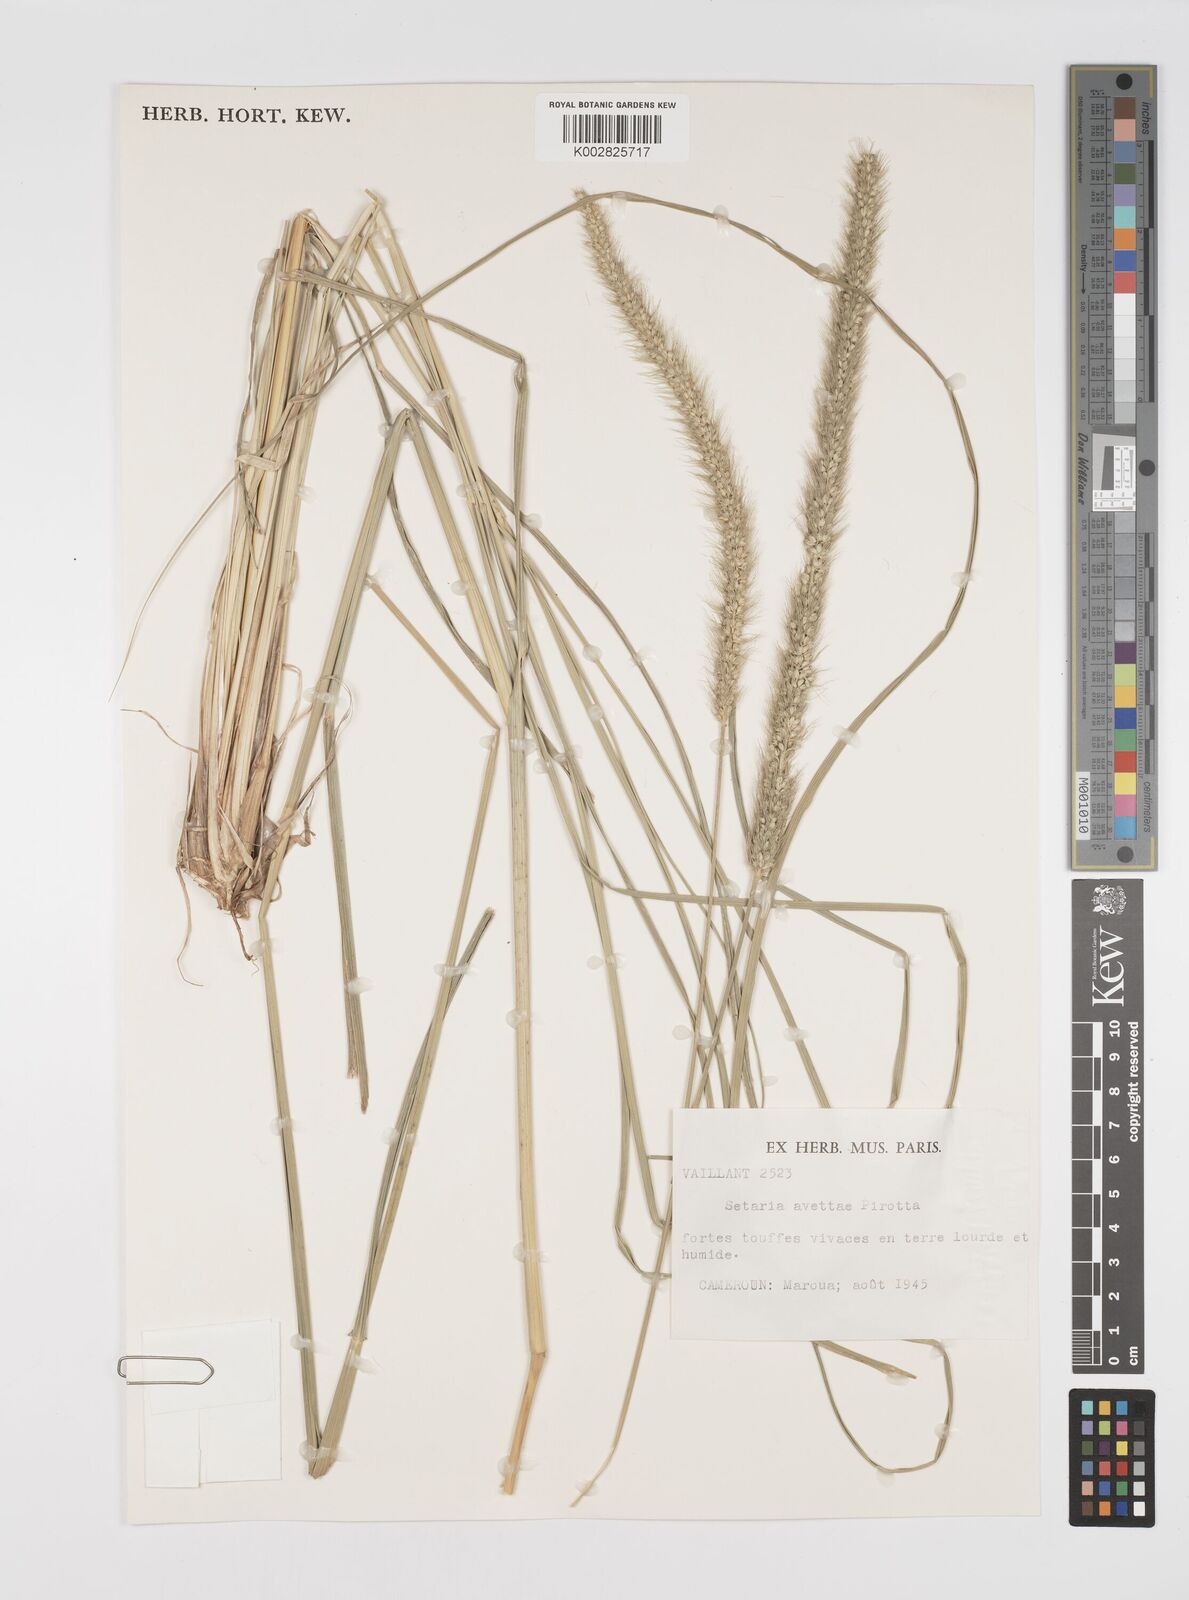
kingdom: Plantae
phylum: Tracheophyta
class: Liliopsida
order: Poales
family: Poaceae
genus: Setaria
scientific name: Setaria incrassata
